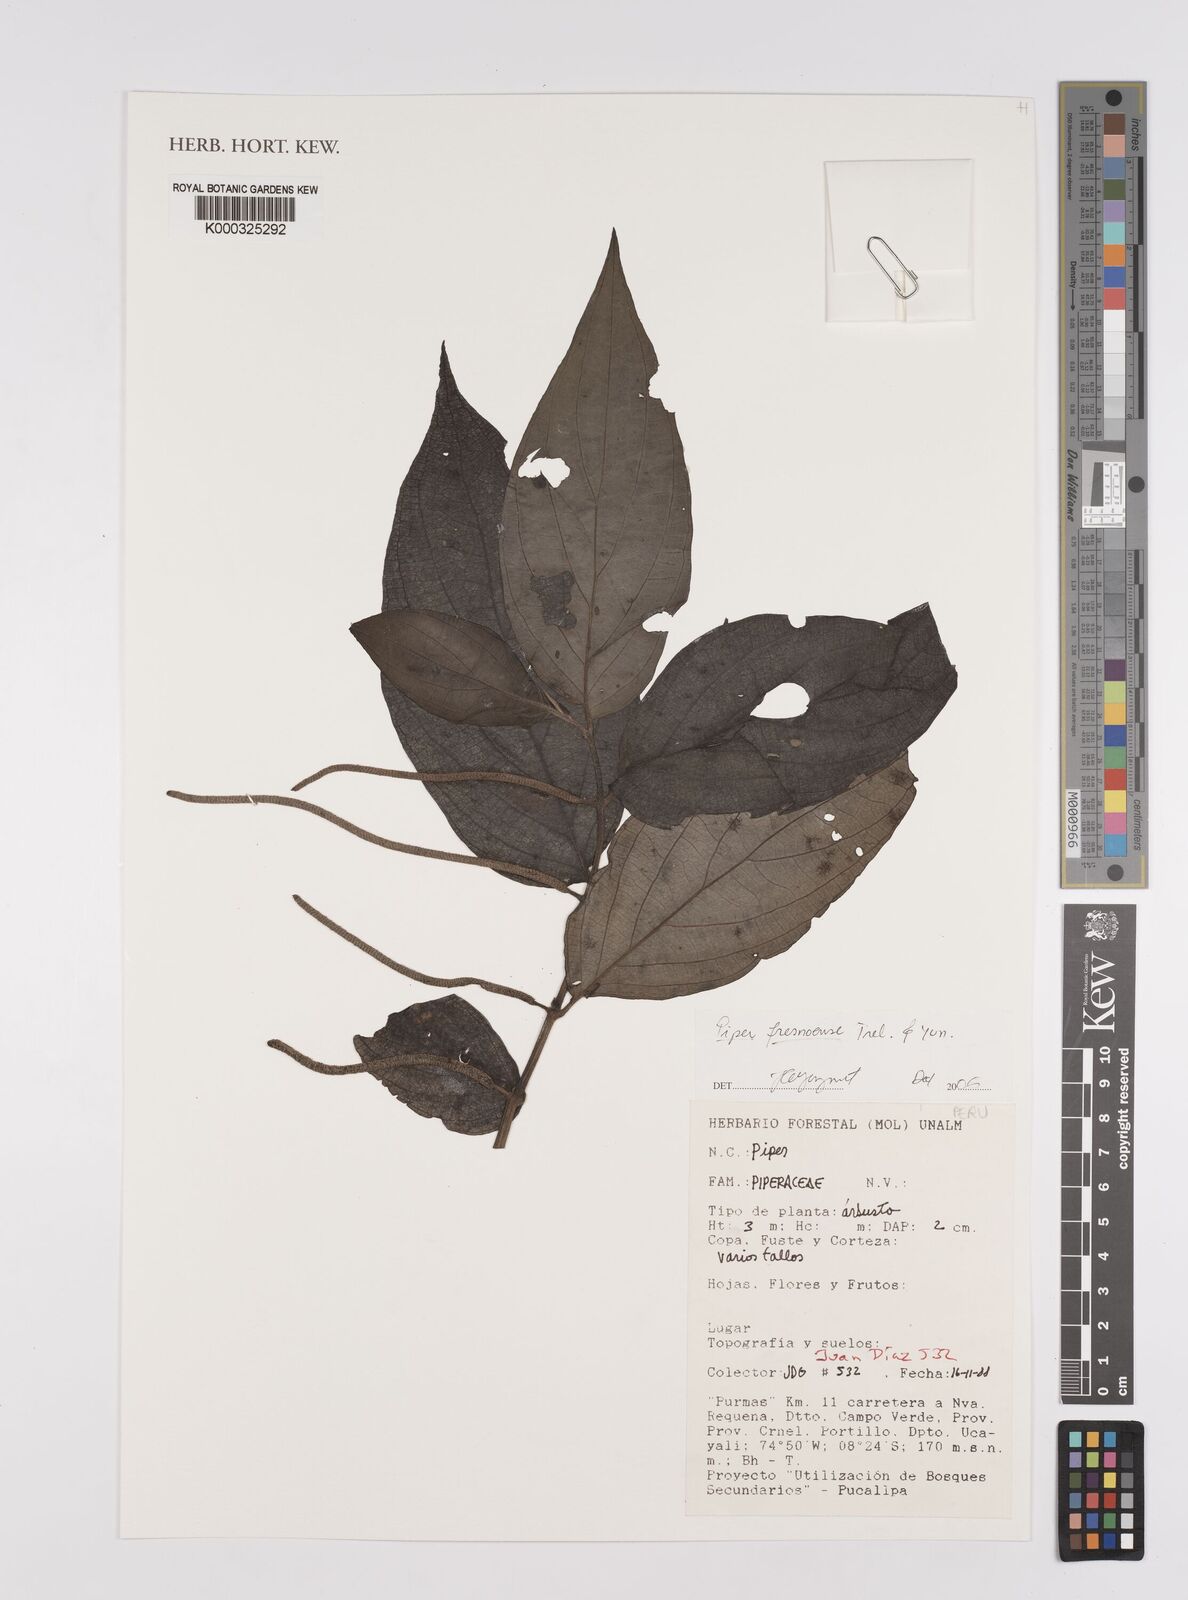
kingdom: Plantae
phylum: Tracheophyta
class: Magnoliopsida
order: Piperales
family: Piperaceae
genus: Piper
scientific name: Piper fresnoense
